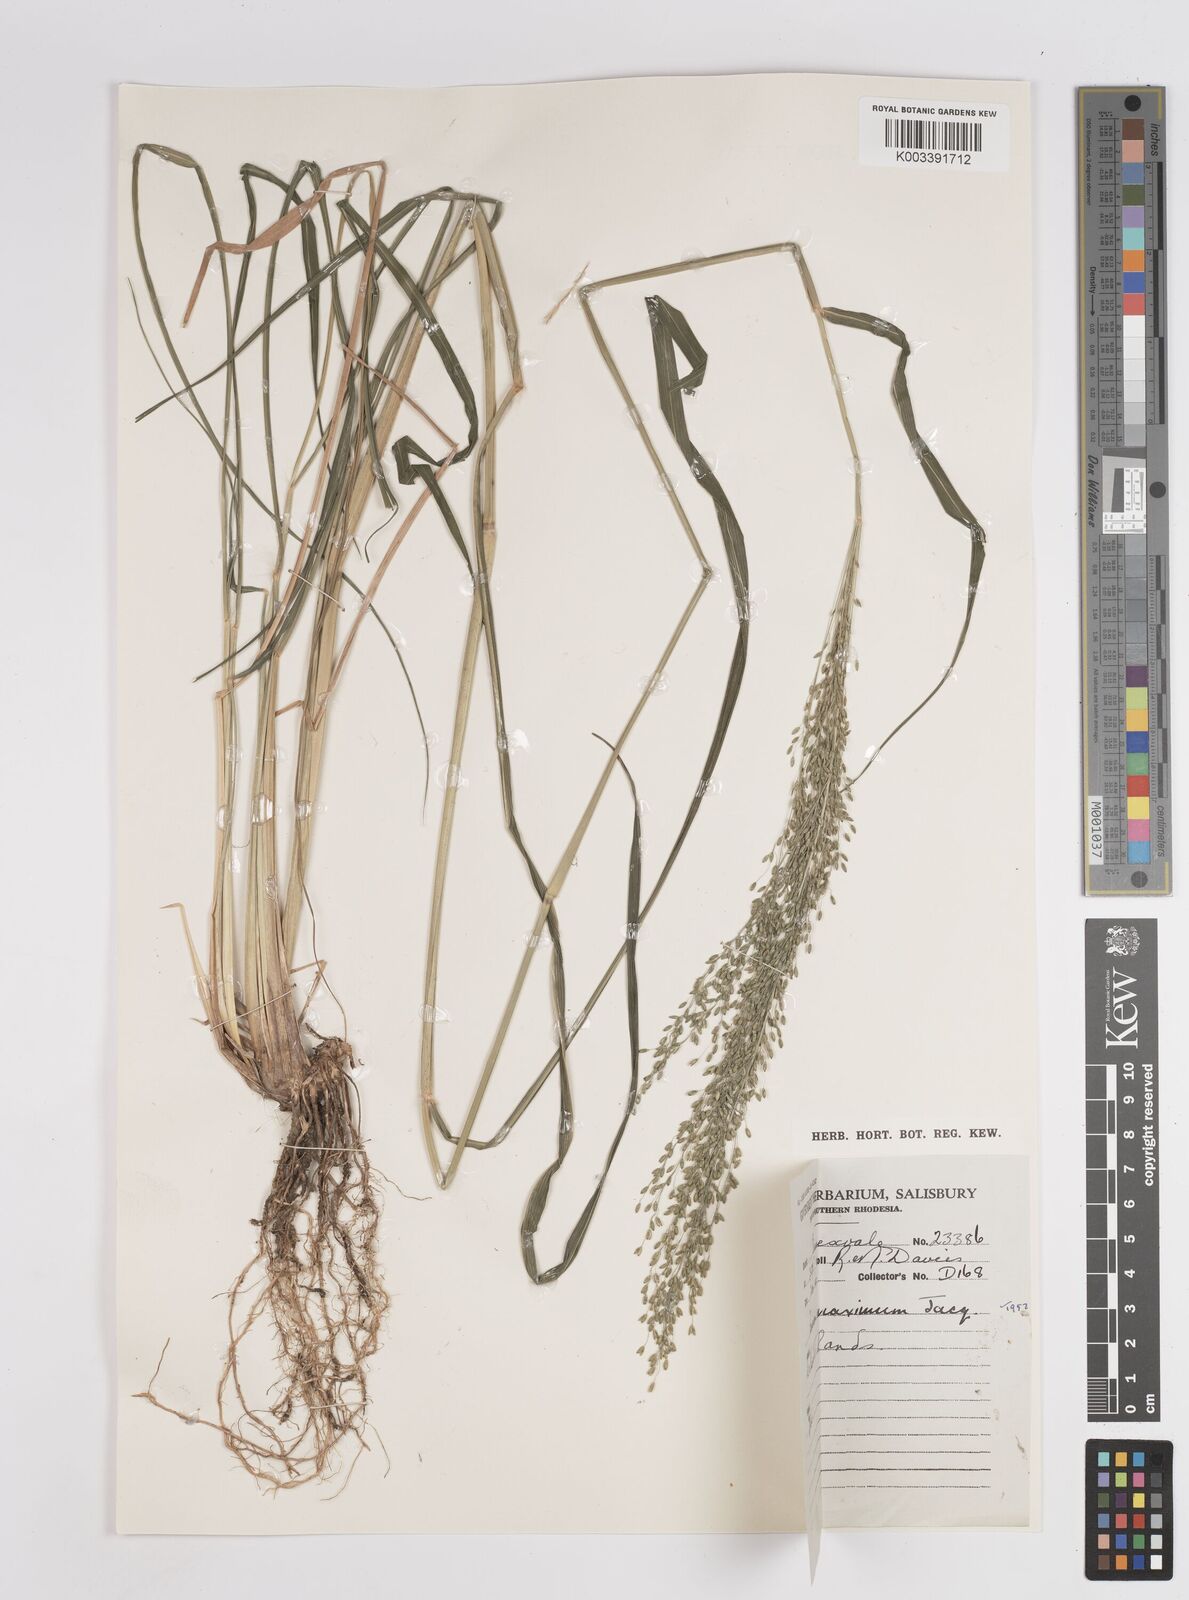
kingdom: Plantae
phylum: Tracheophyta
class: Liliopsida
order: Poales
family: Poaceae
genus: Megathyrsus
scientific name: Megathyrsus maximus
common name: Guineagrass
